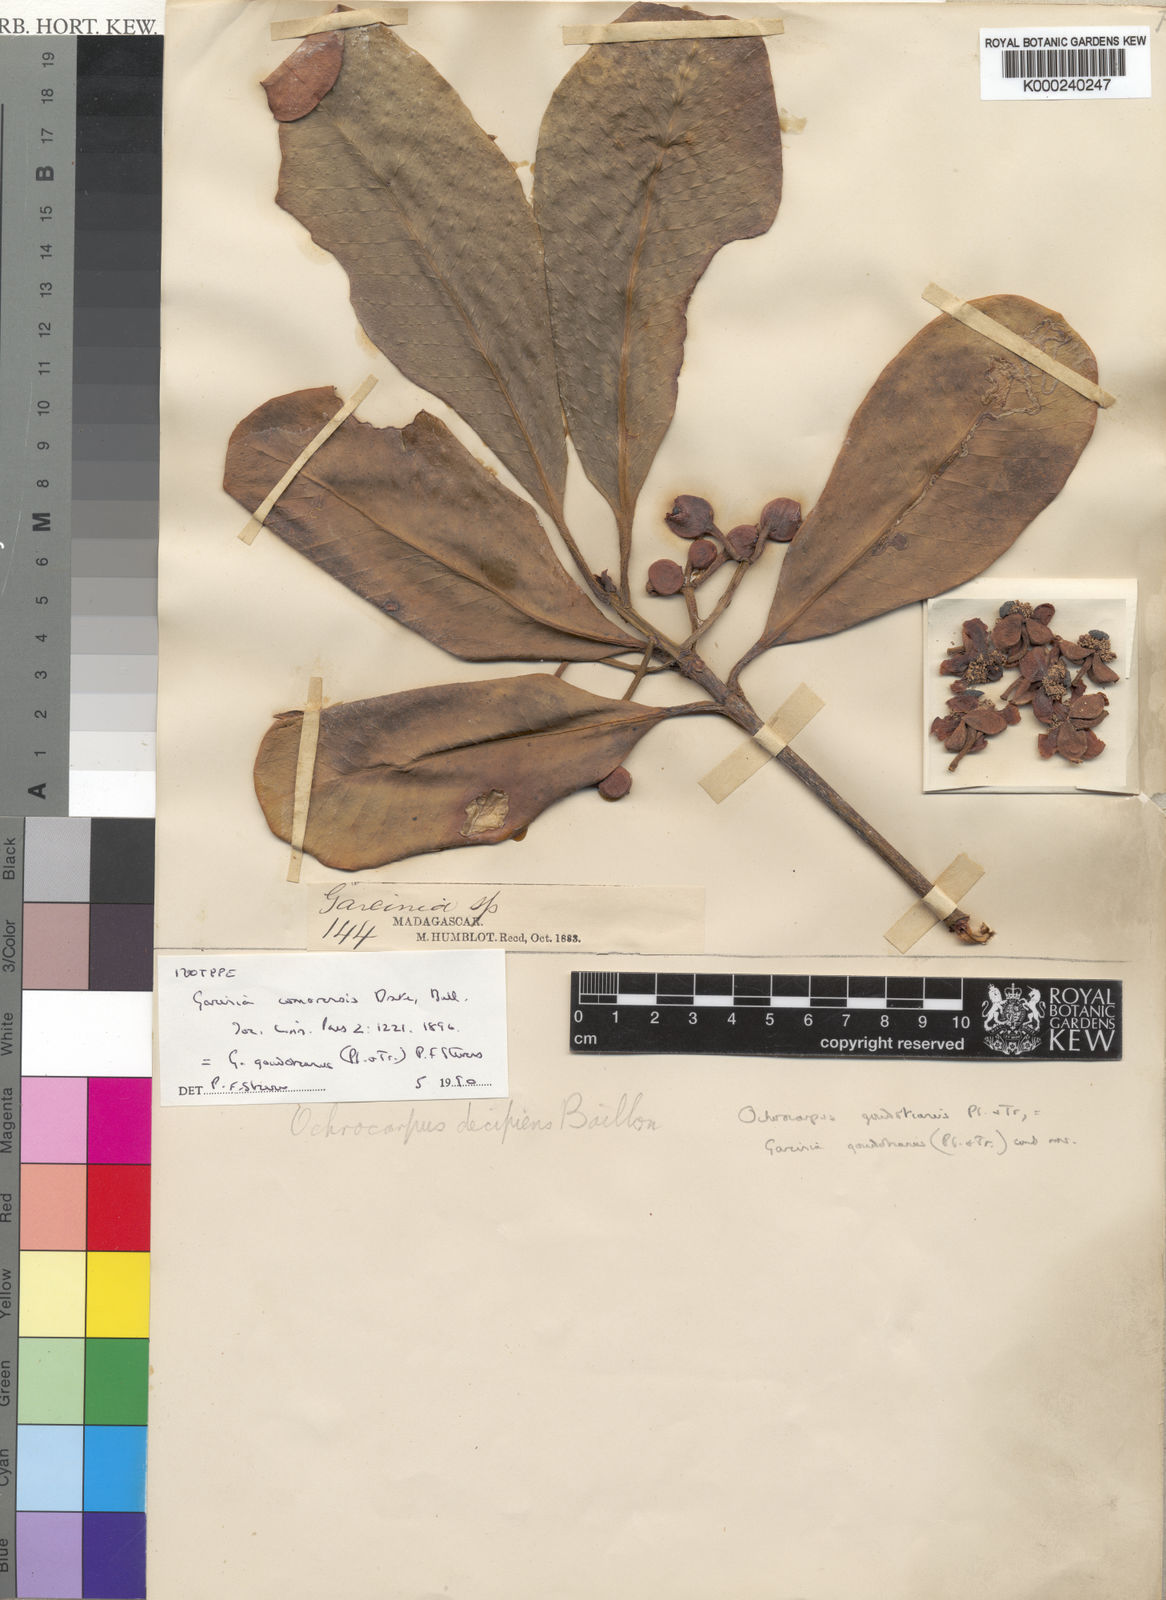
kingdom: Plantae
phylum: Tracheophyta
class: Magnoliopsida
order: Malpighiales
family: Clusiaceae
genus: Garcinia
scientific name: Garcinia goudotiana
